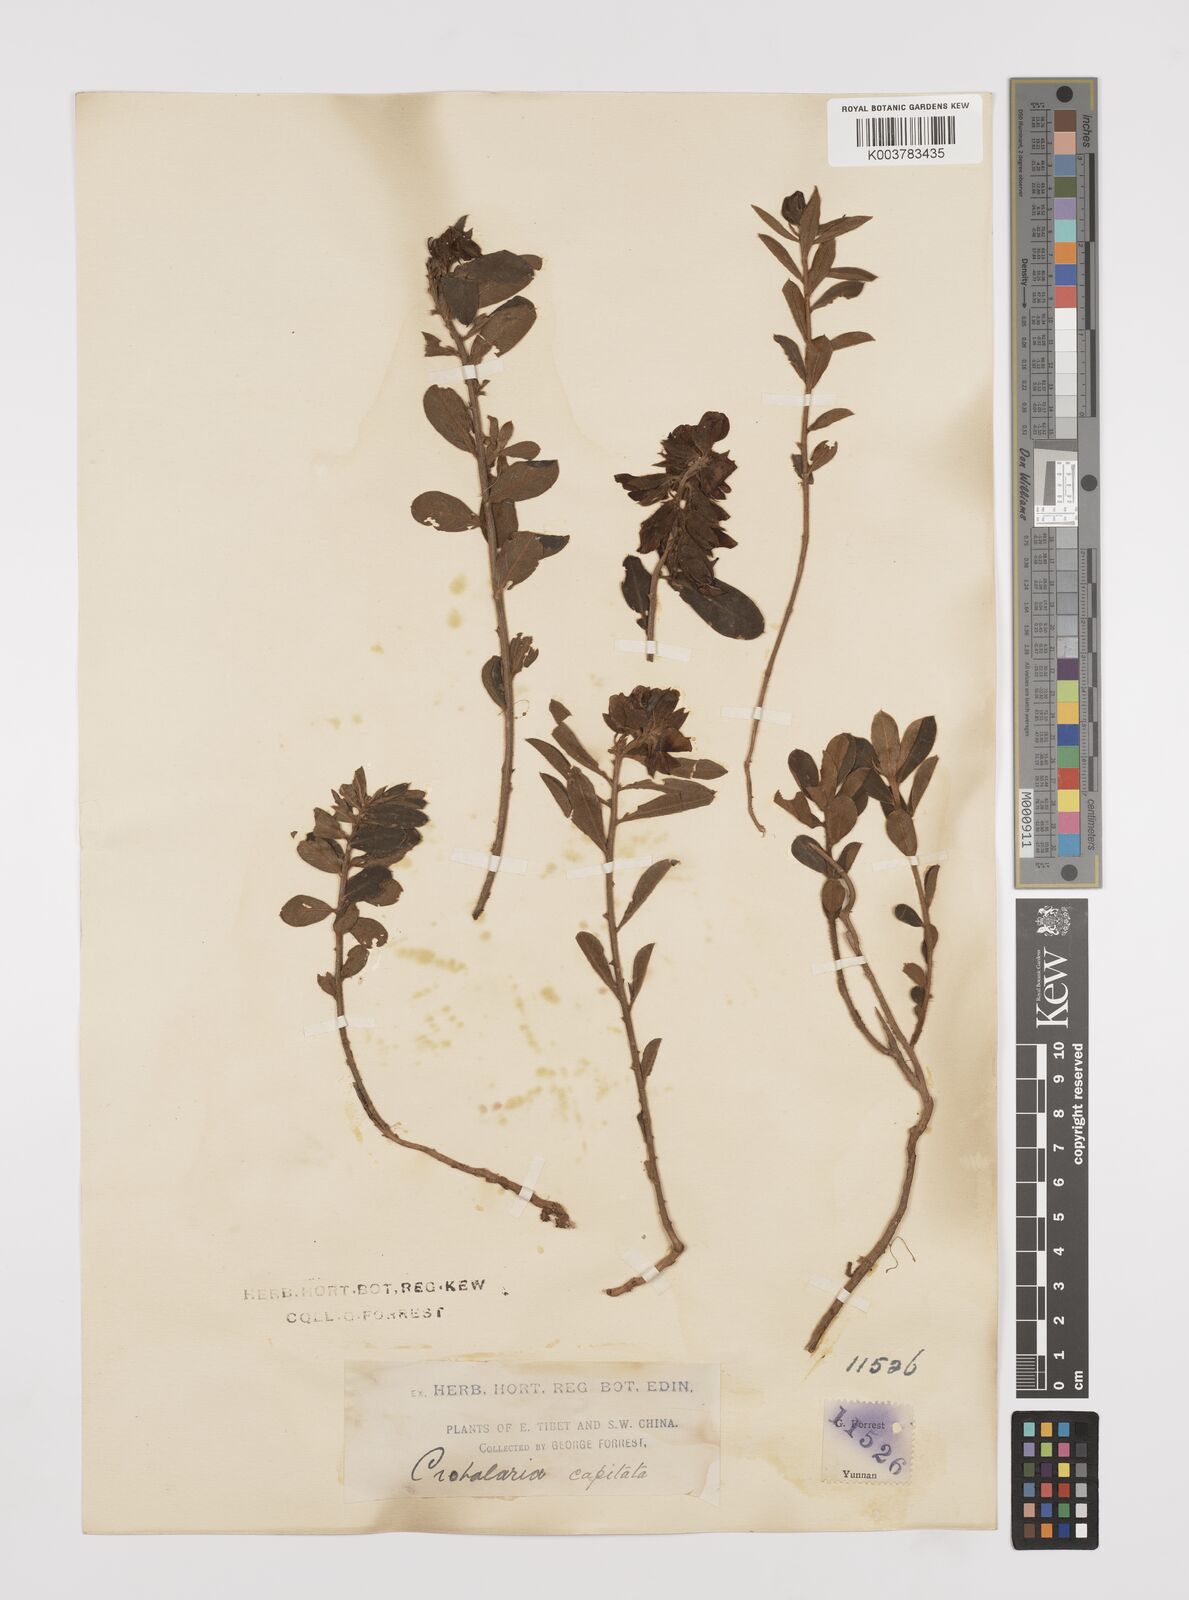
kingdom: Plantae
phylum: Tracheophyta
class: Magnoliopsida
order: Fabales
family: Fabaceae
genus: Liparia
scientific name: Liparia capitata
